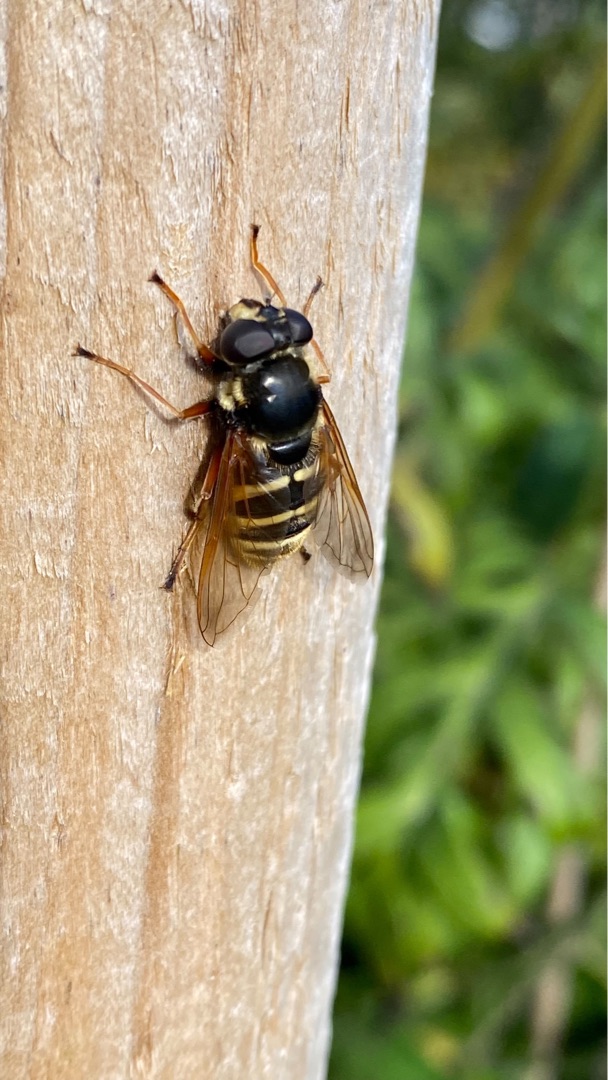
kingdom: Animalia
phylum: Arthropoda
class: Insecta
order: Diptera
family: Syrphidae
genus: Sericomyia
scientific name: Sericomyia silentis
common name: Tørve-silkesvirreflue
